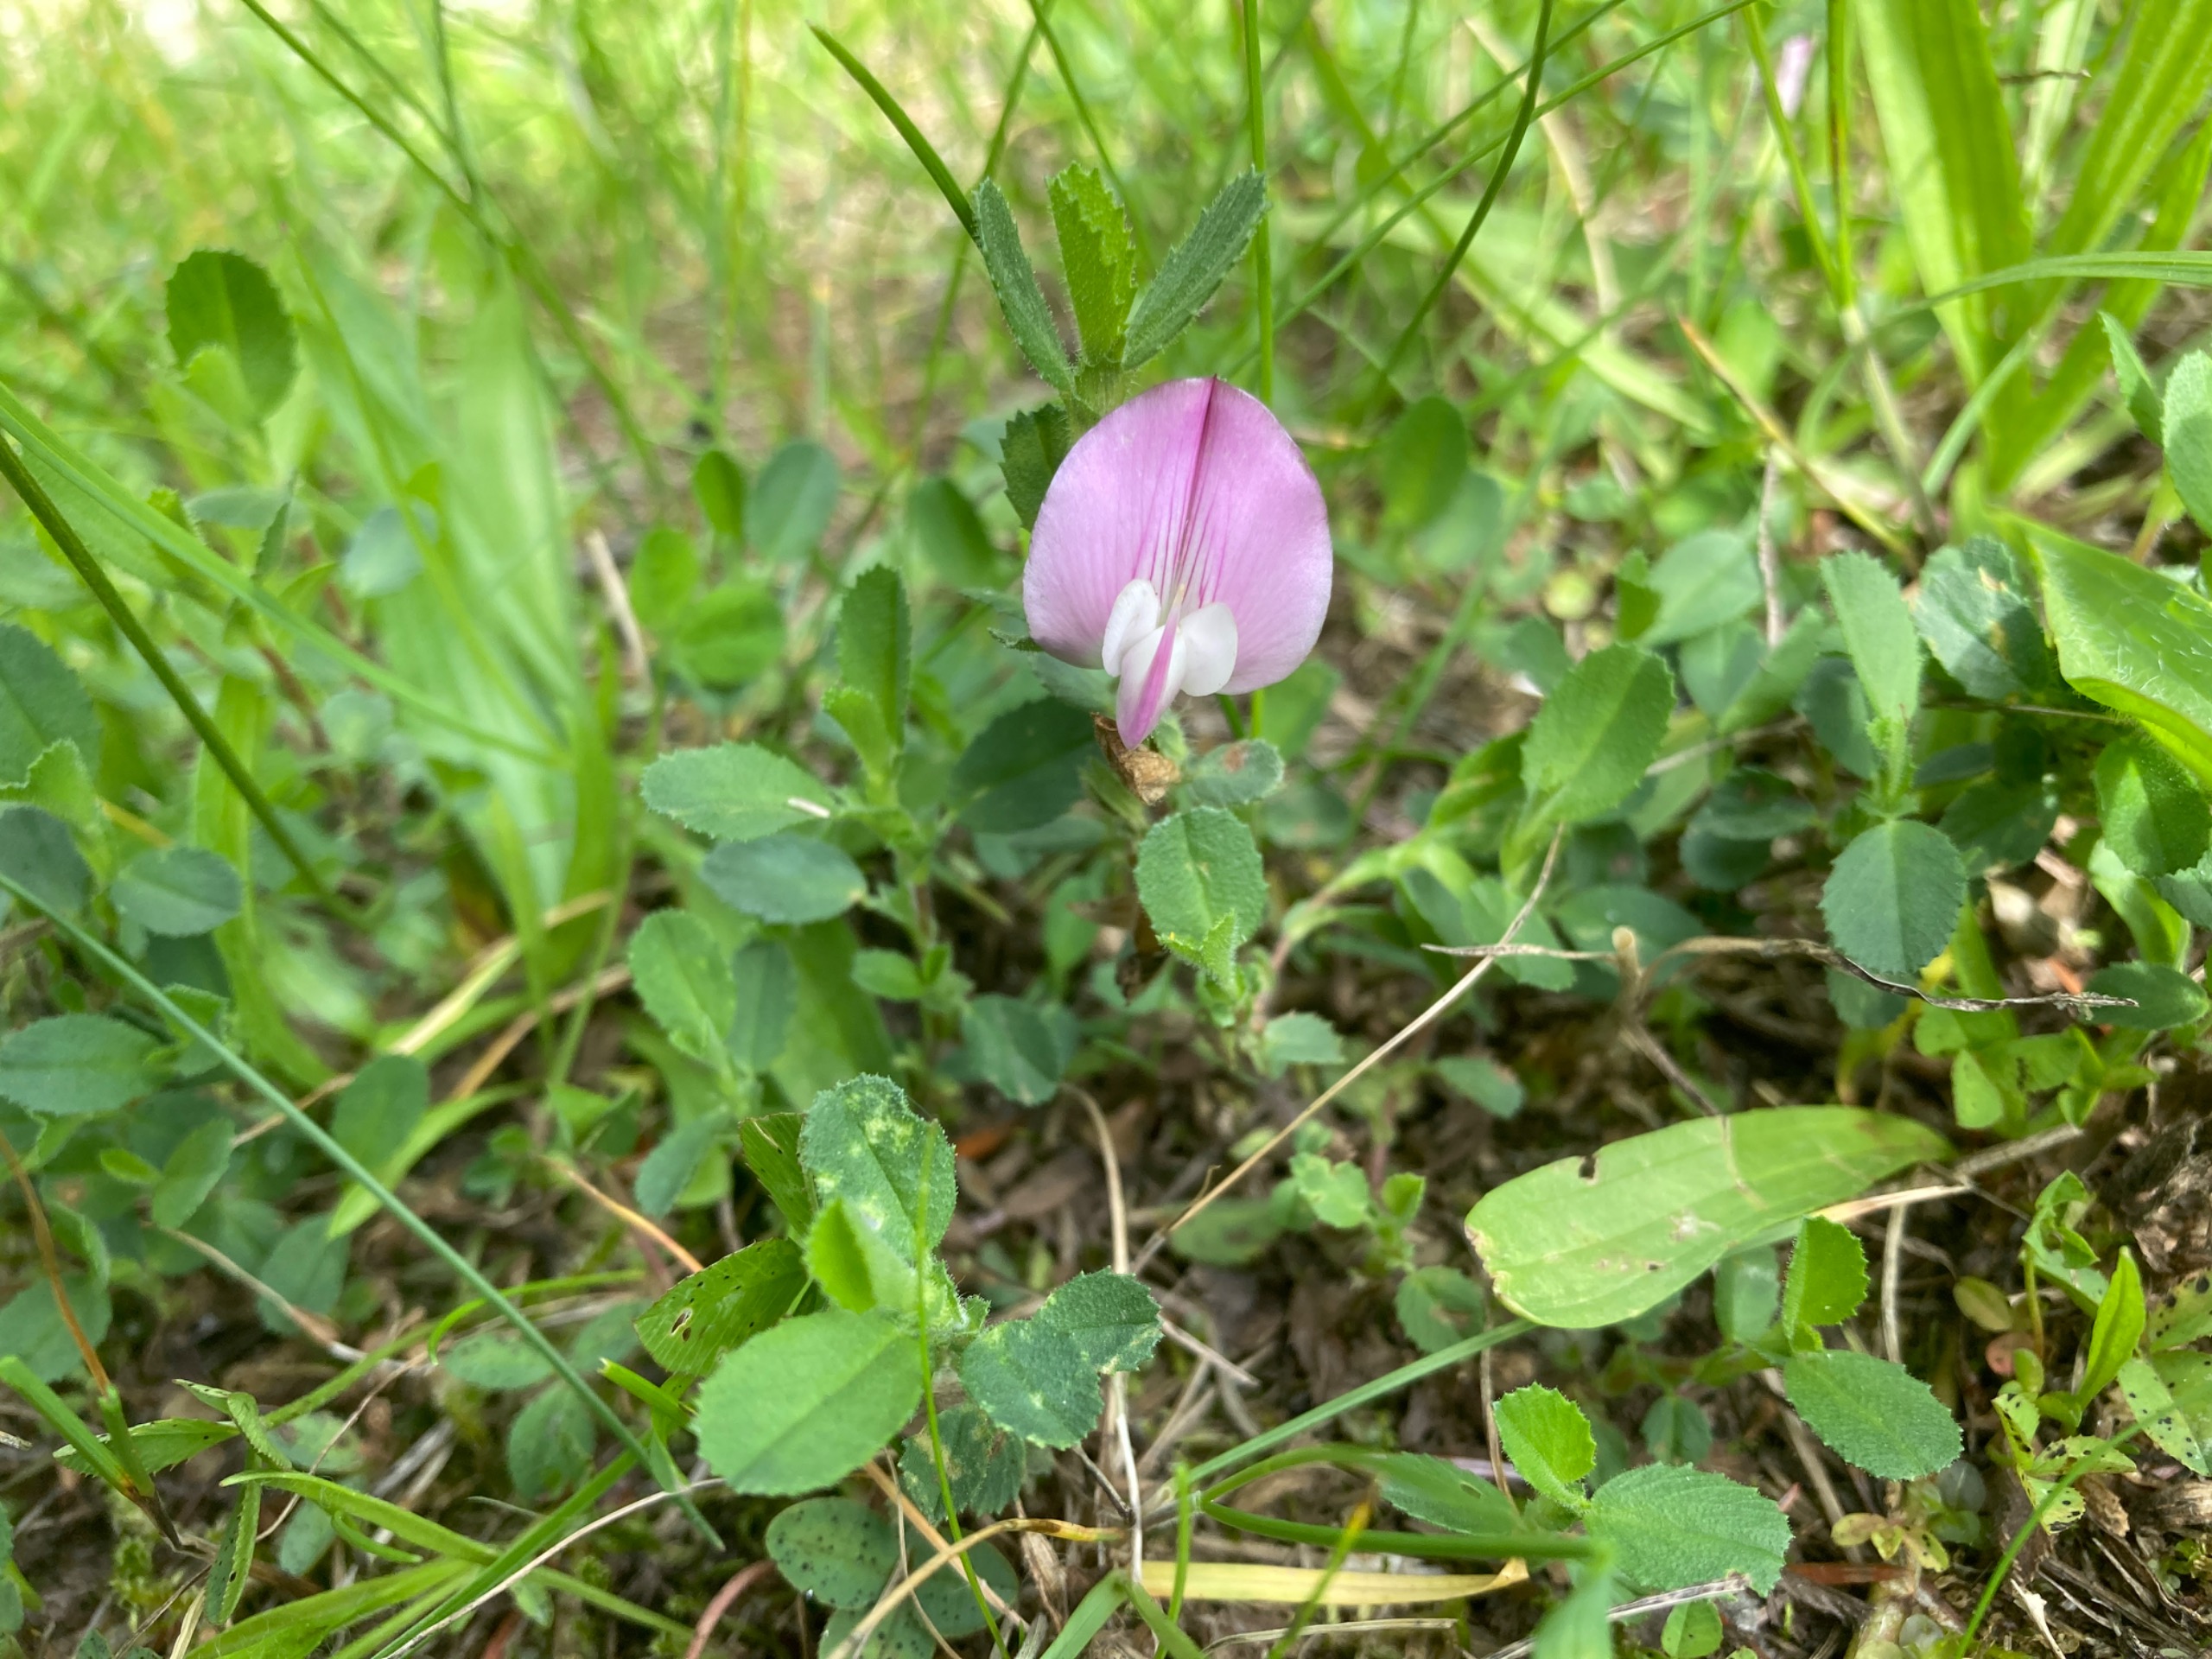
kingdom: Plantae
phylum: Tracheophyta
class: Magnoliopsida
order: Fabales
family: Fabaceae
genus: Ononis
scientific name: Ononis spinosa
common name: Mark-krageklo
